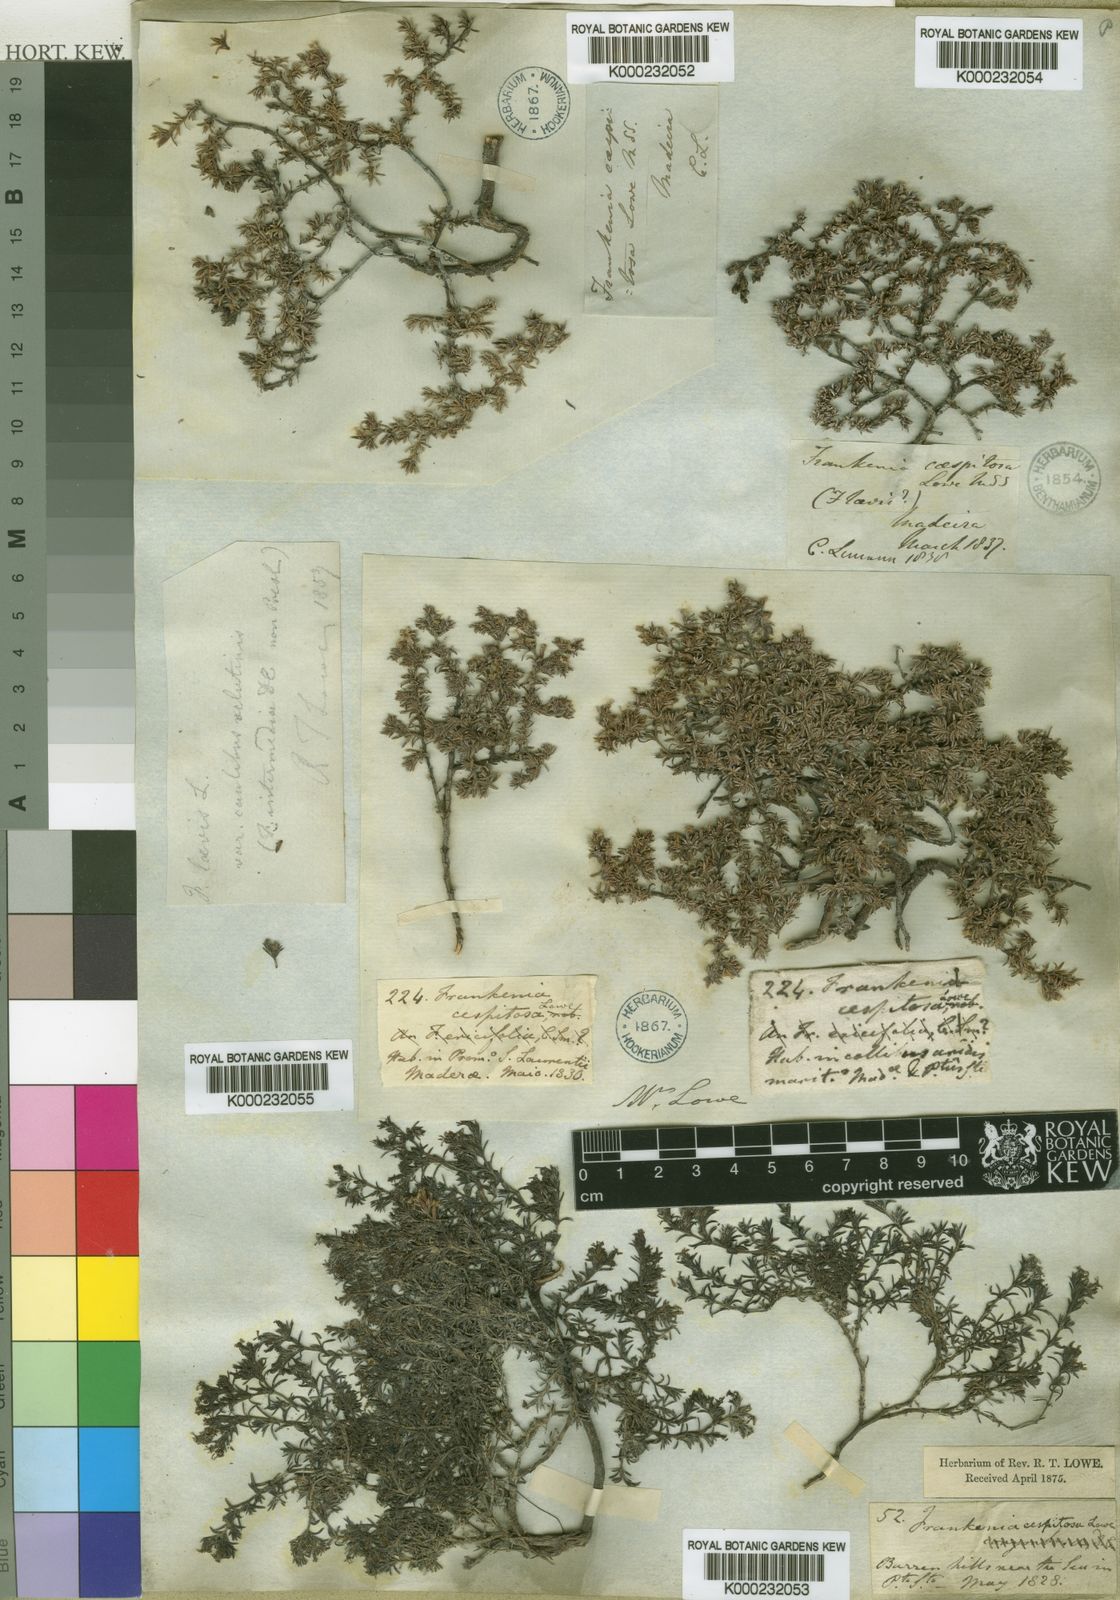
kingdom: Plantae
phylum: Tracheophyta
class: Magnoliopsida
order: Caryophyllales
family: Frankeniaceae
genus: Frankenia
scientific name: Frankenia pulverulenta
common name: European seaheath
